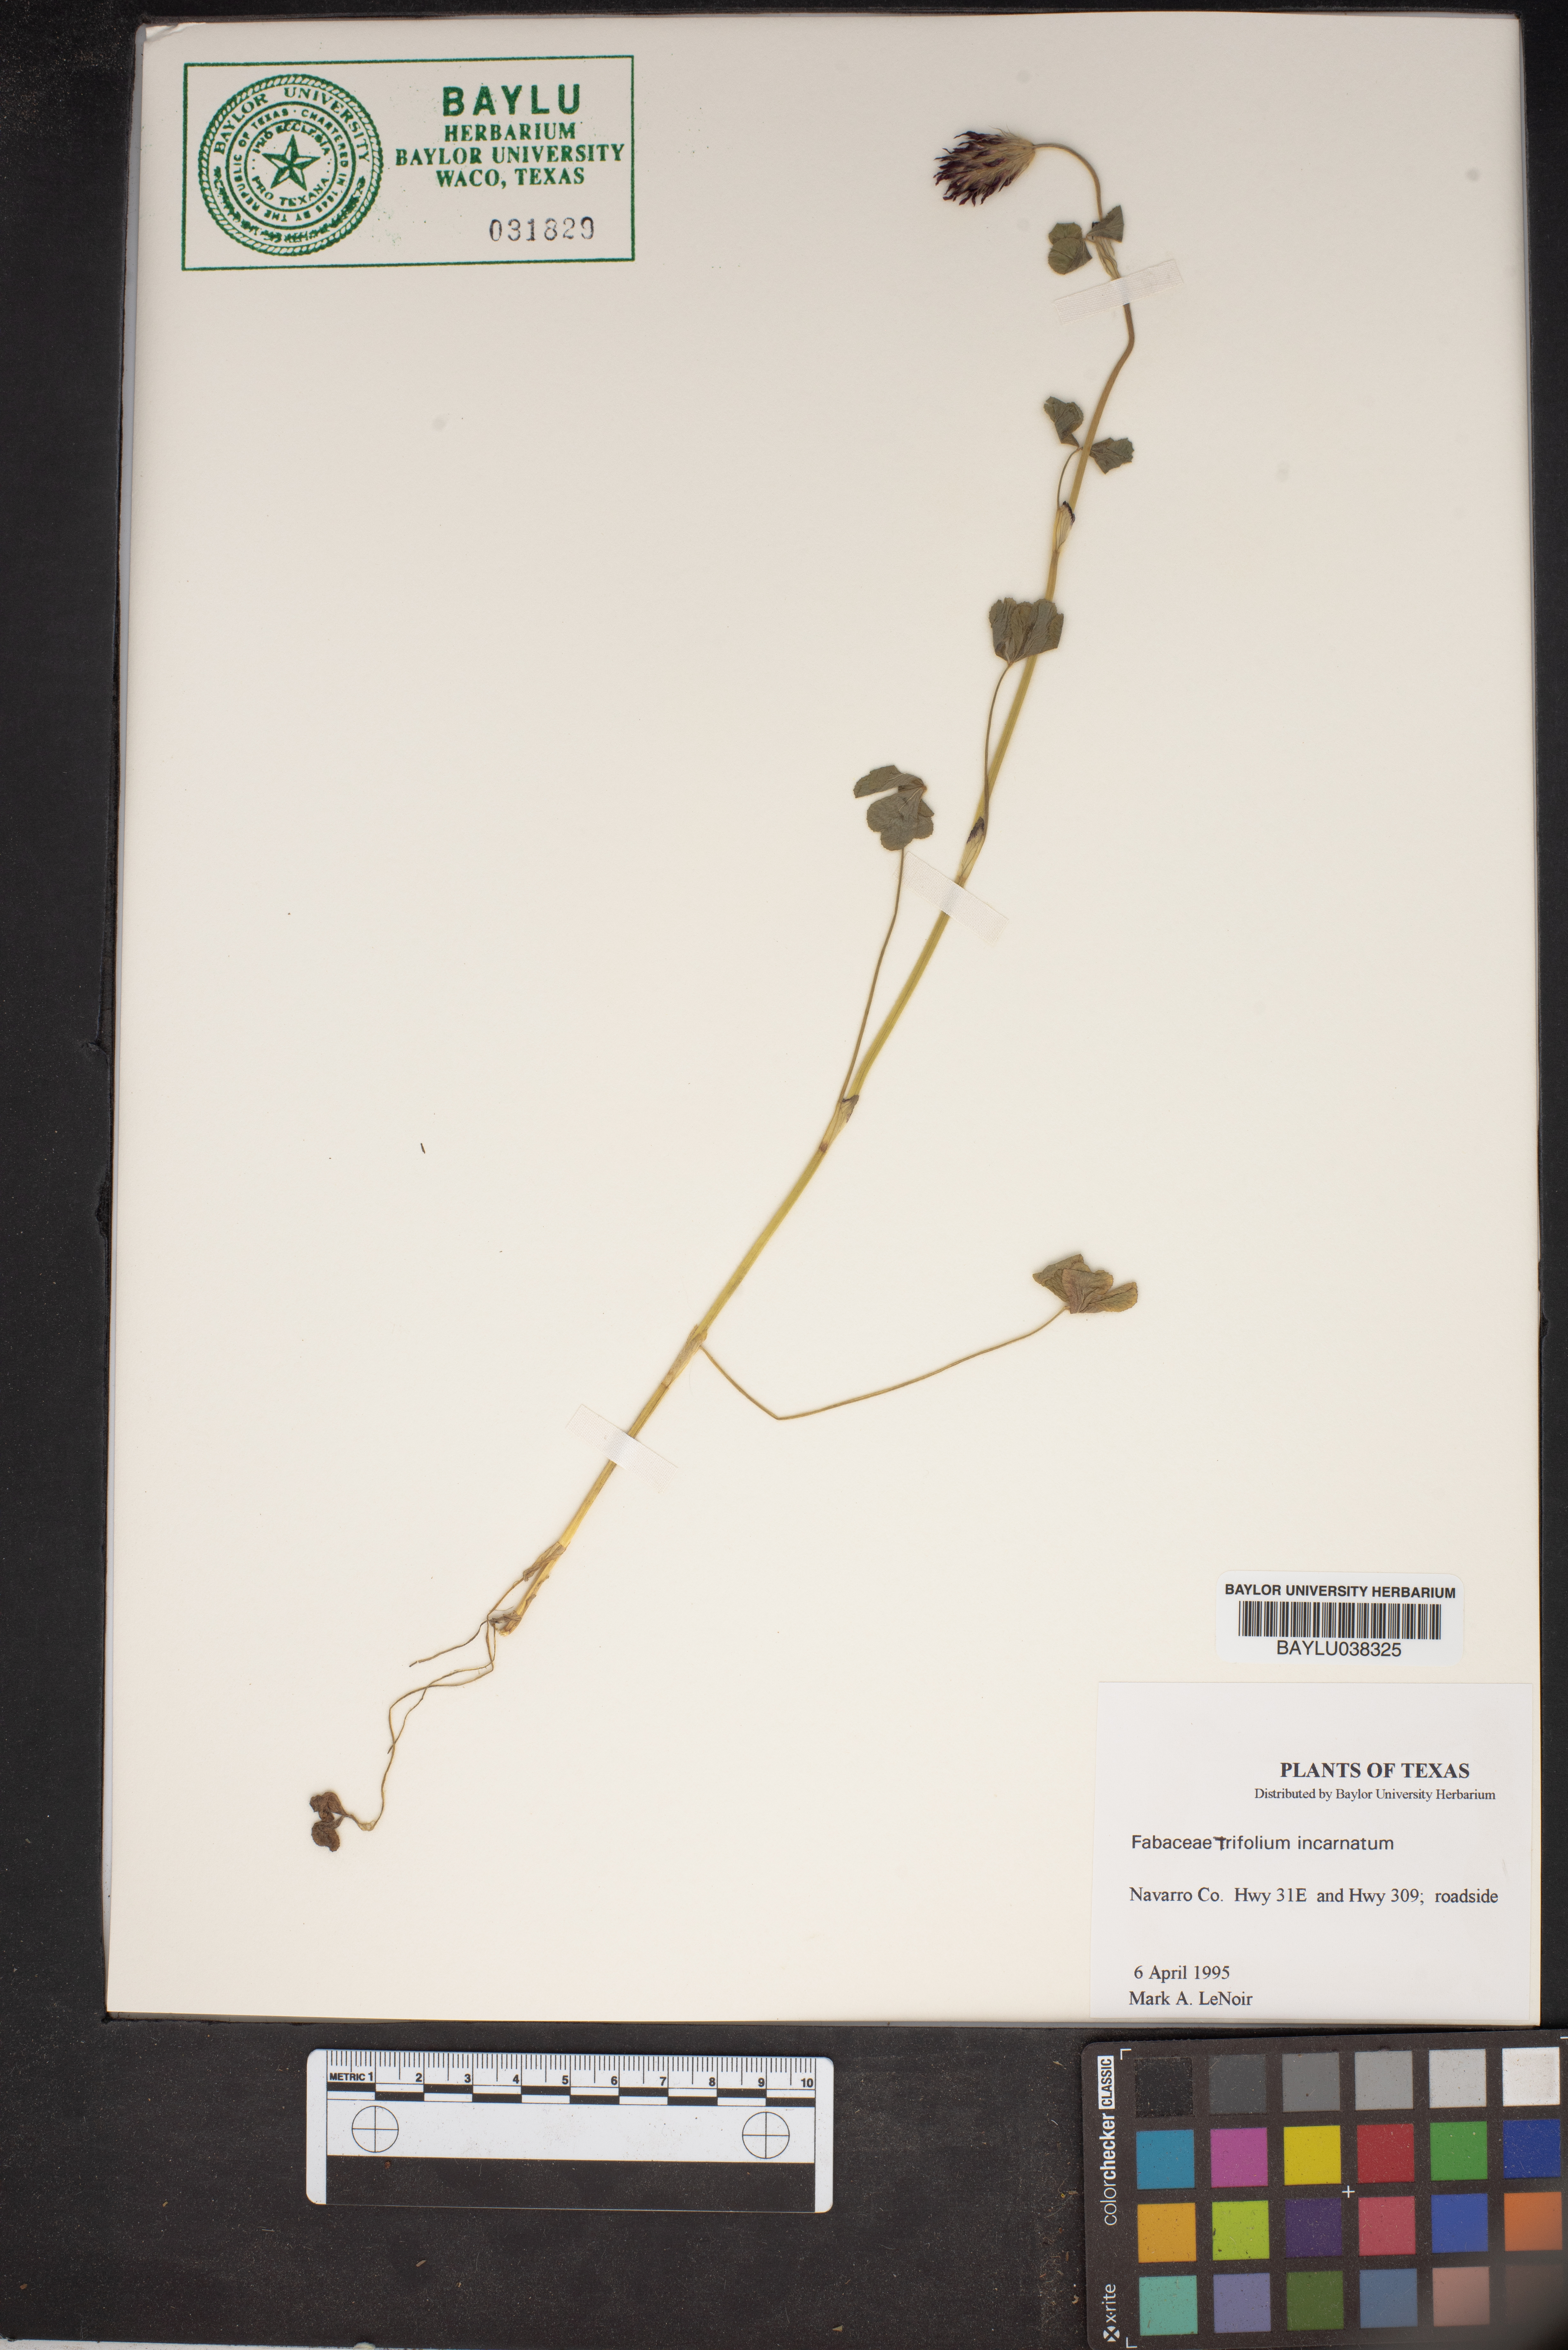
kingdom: Plantae
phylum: Tracheophyta
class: Magnoliopsida
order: Fabales
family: Fabaceae
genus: Trifolium
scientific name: Trifolium incarnatum
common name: Crimson clover
